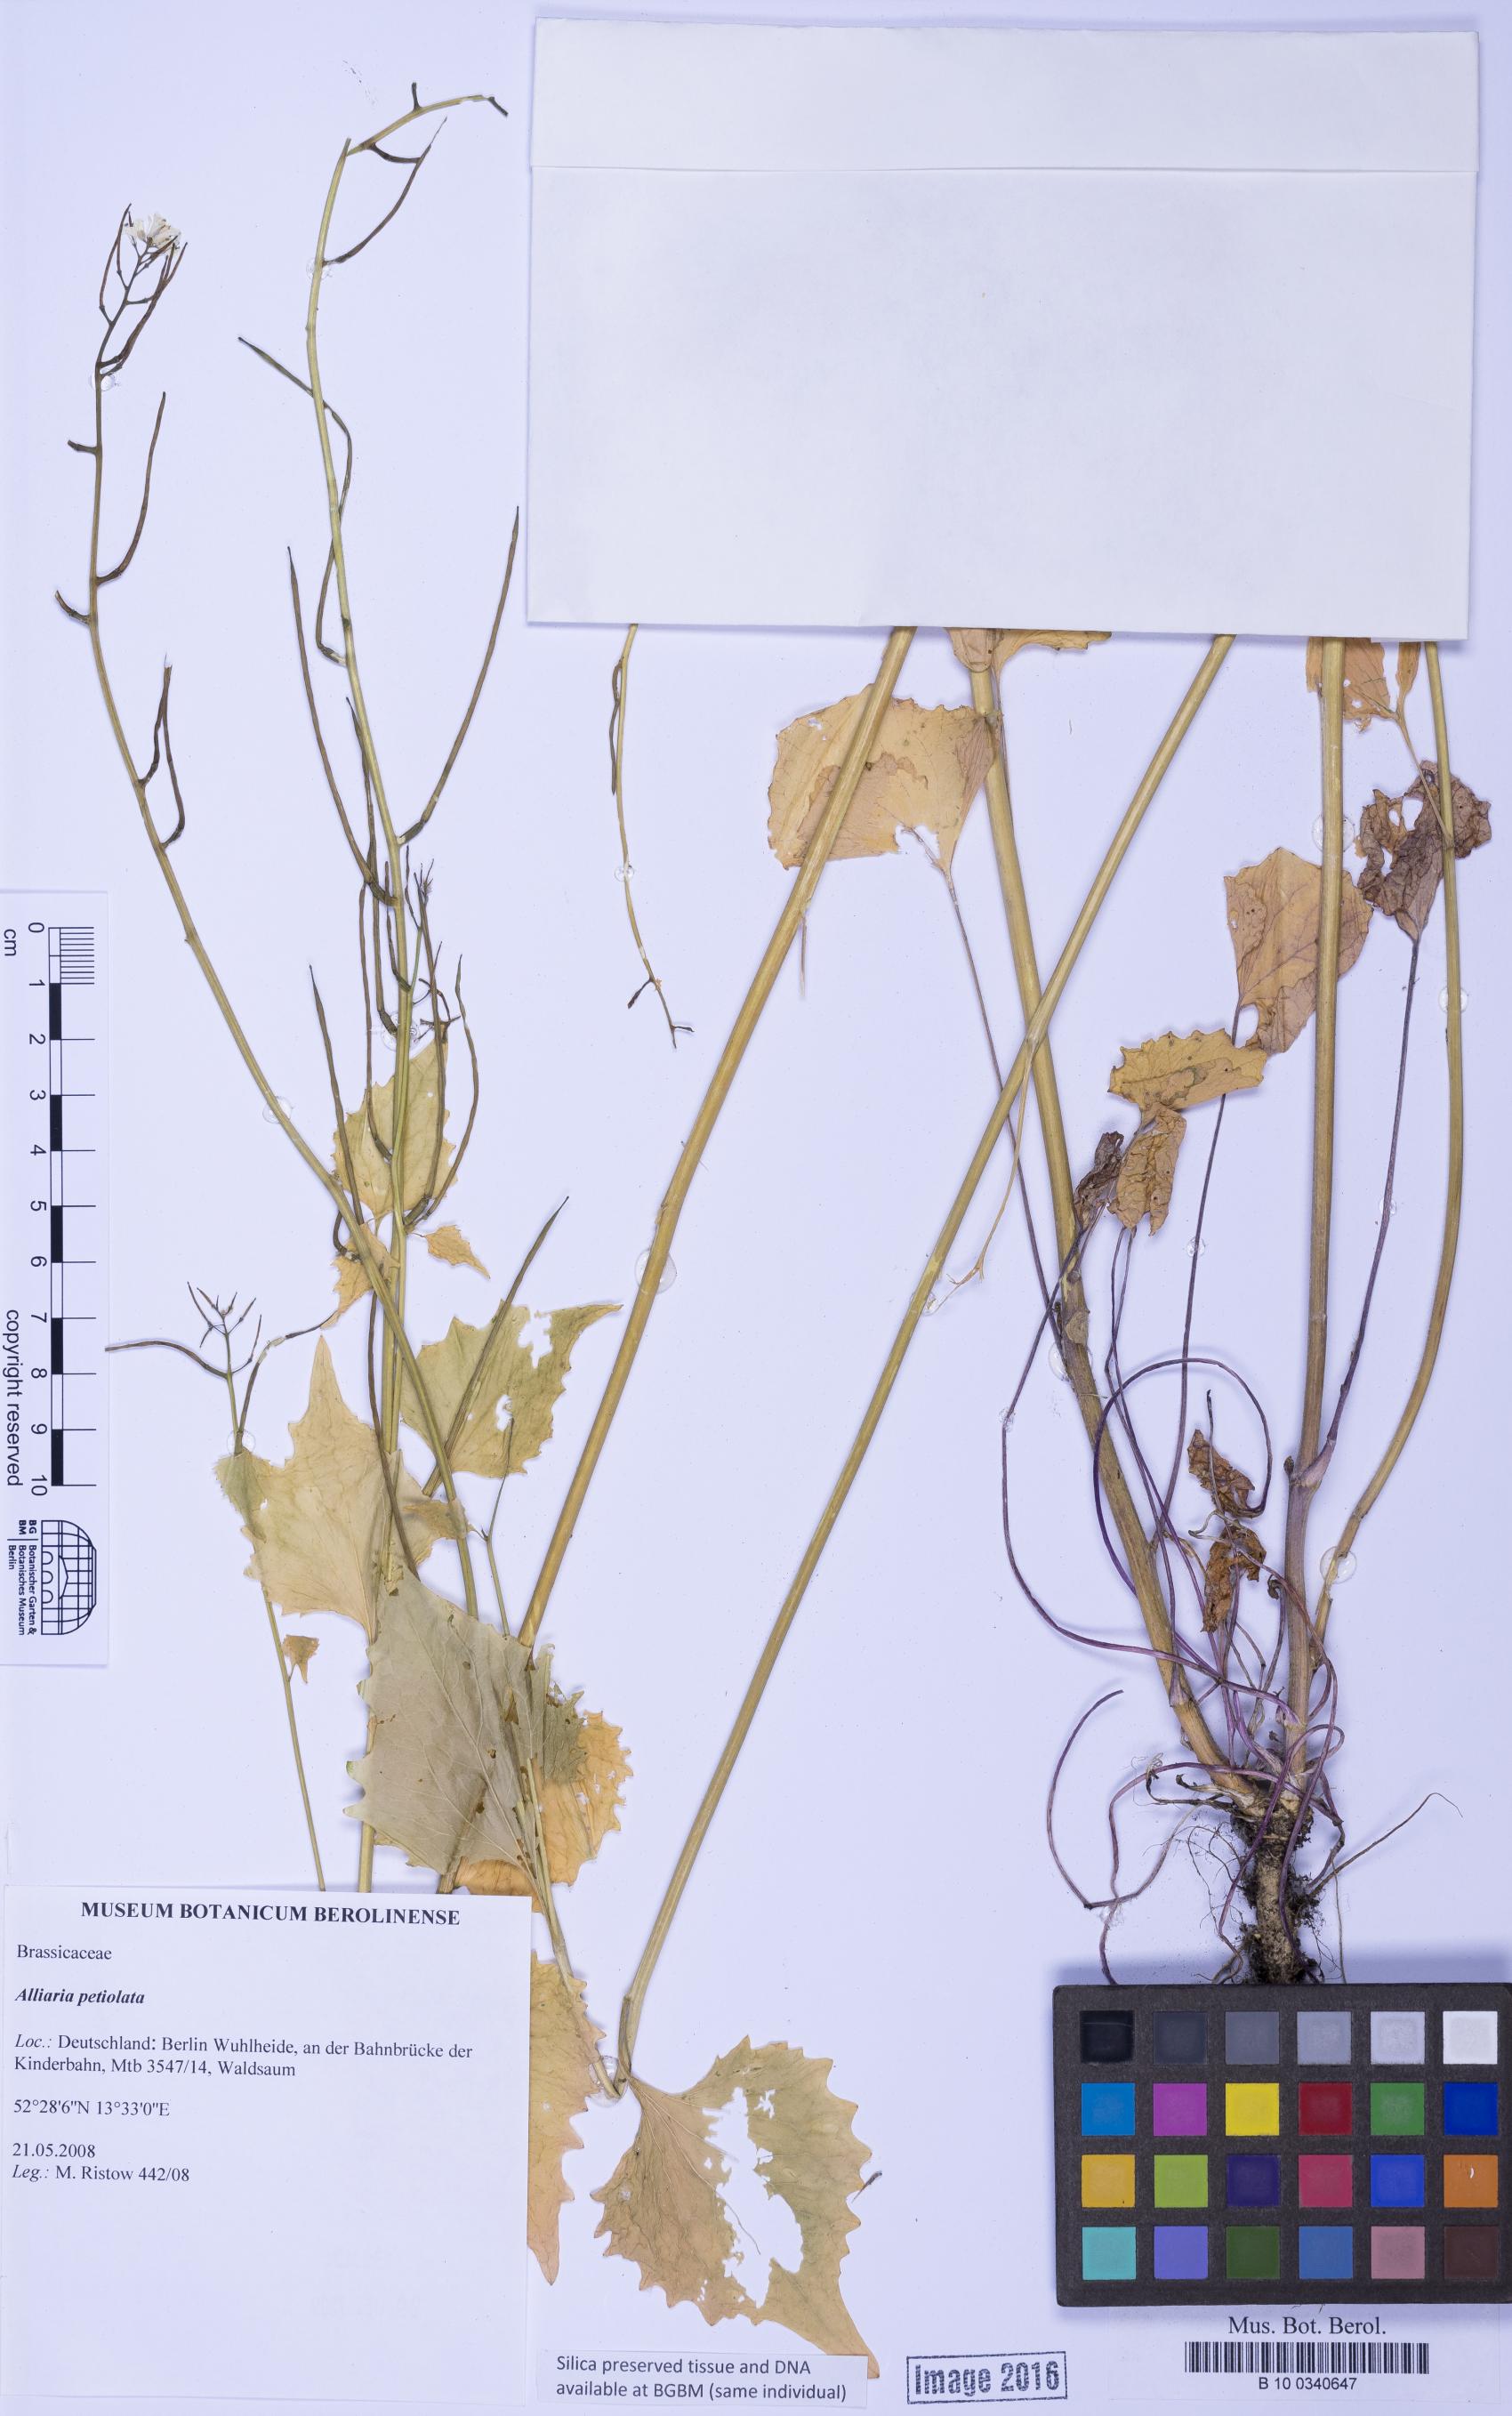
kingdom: Plantae
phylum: Tracheophyta
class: Magnoliopsida
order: Brassicales
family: Brassicaceae
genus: Alliaria
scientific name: Alliaria petiolata
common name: Garlic mustard
